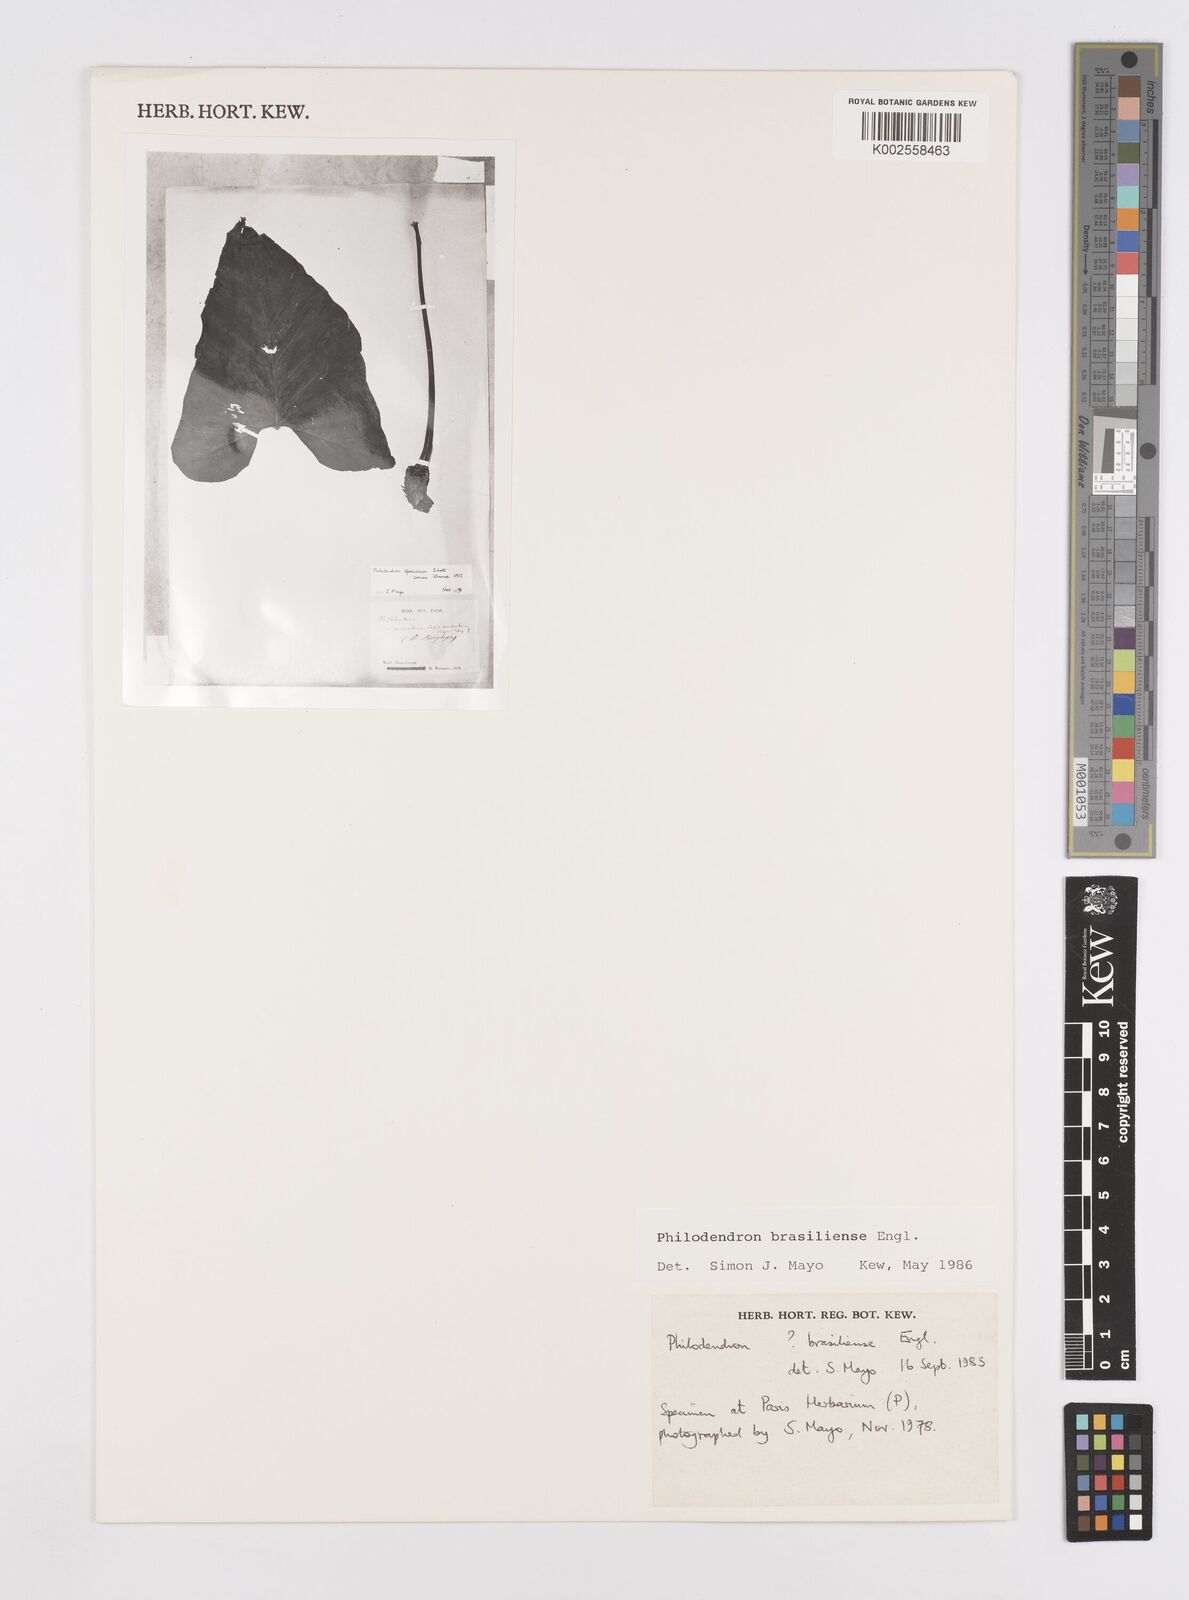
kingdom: Plantae
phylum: Tracheophyta
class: Liliopsida
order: Alismatales
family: Araceae
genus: Thaumatophyllum
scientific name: Thaumatophyllum brasiliense
